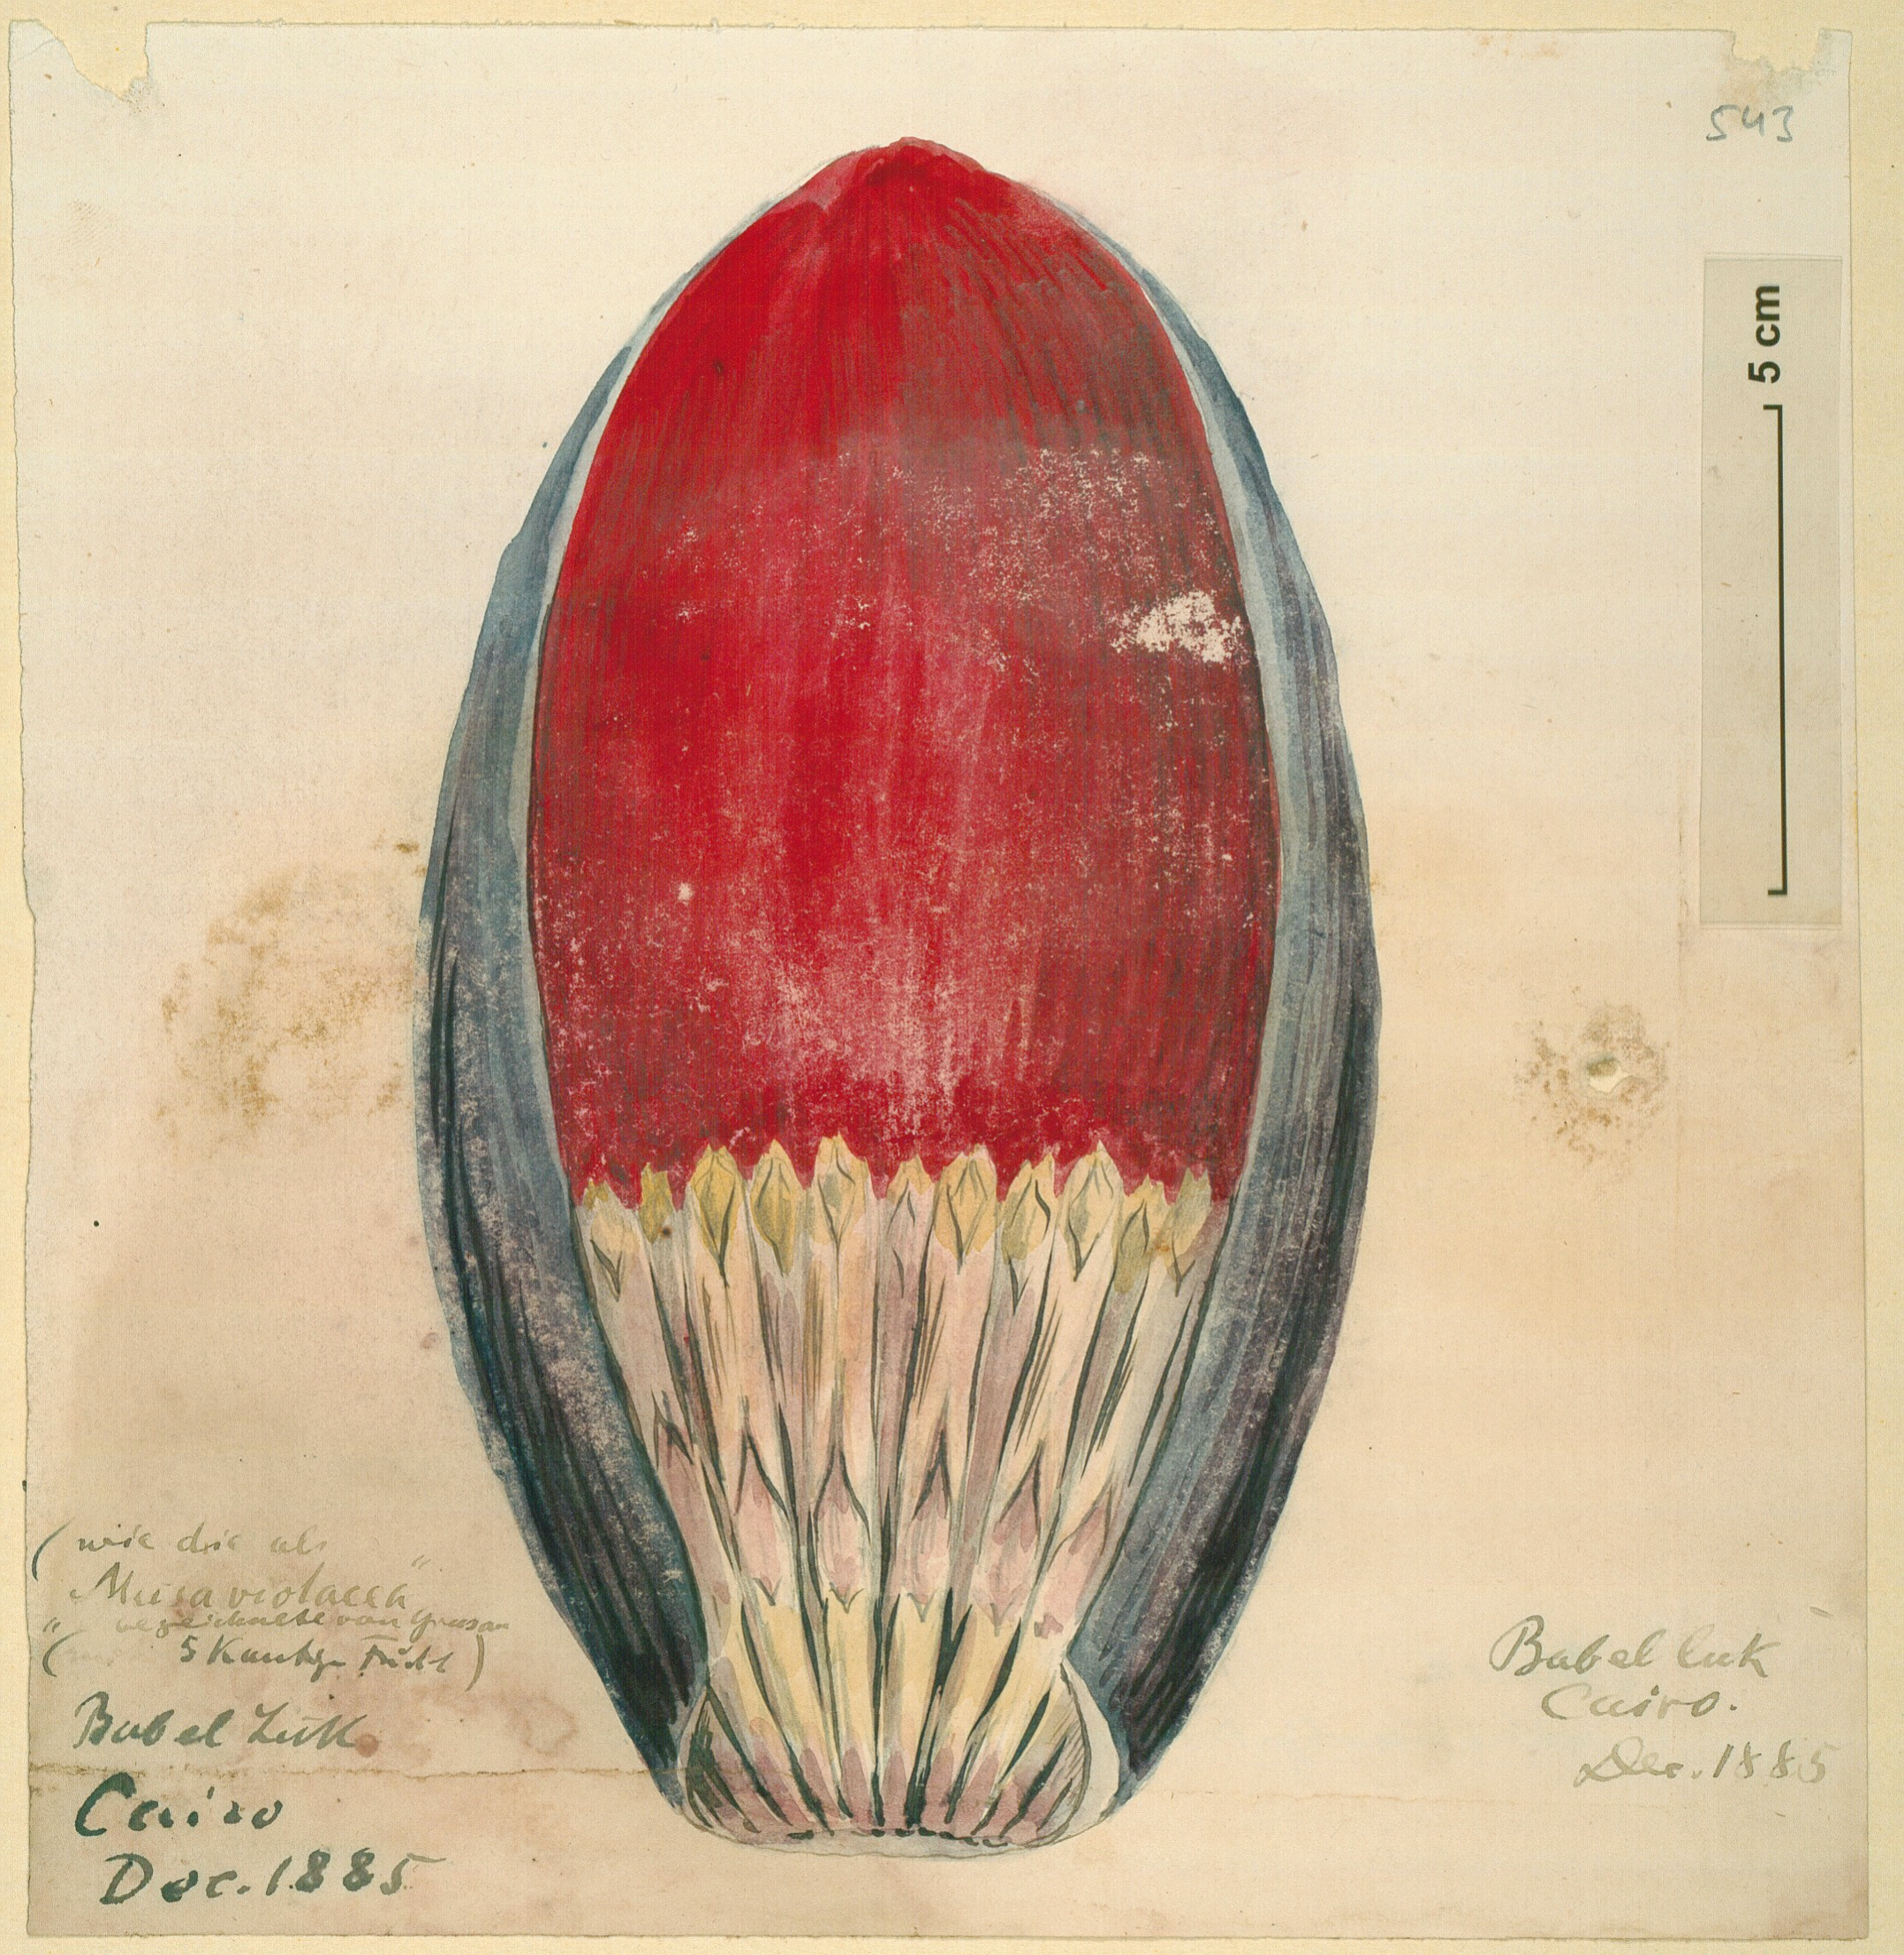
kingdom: Plantae
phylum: Tracheophyta
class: Liliopsida
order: Zingiberales
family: Musaceae
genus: Musa
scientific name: Musa paradisiaca
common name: French plantain
